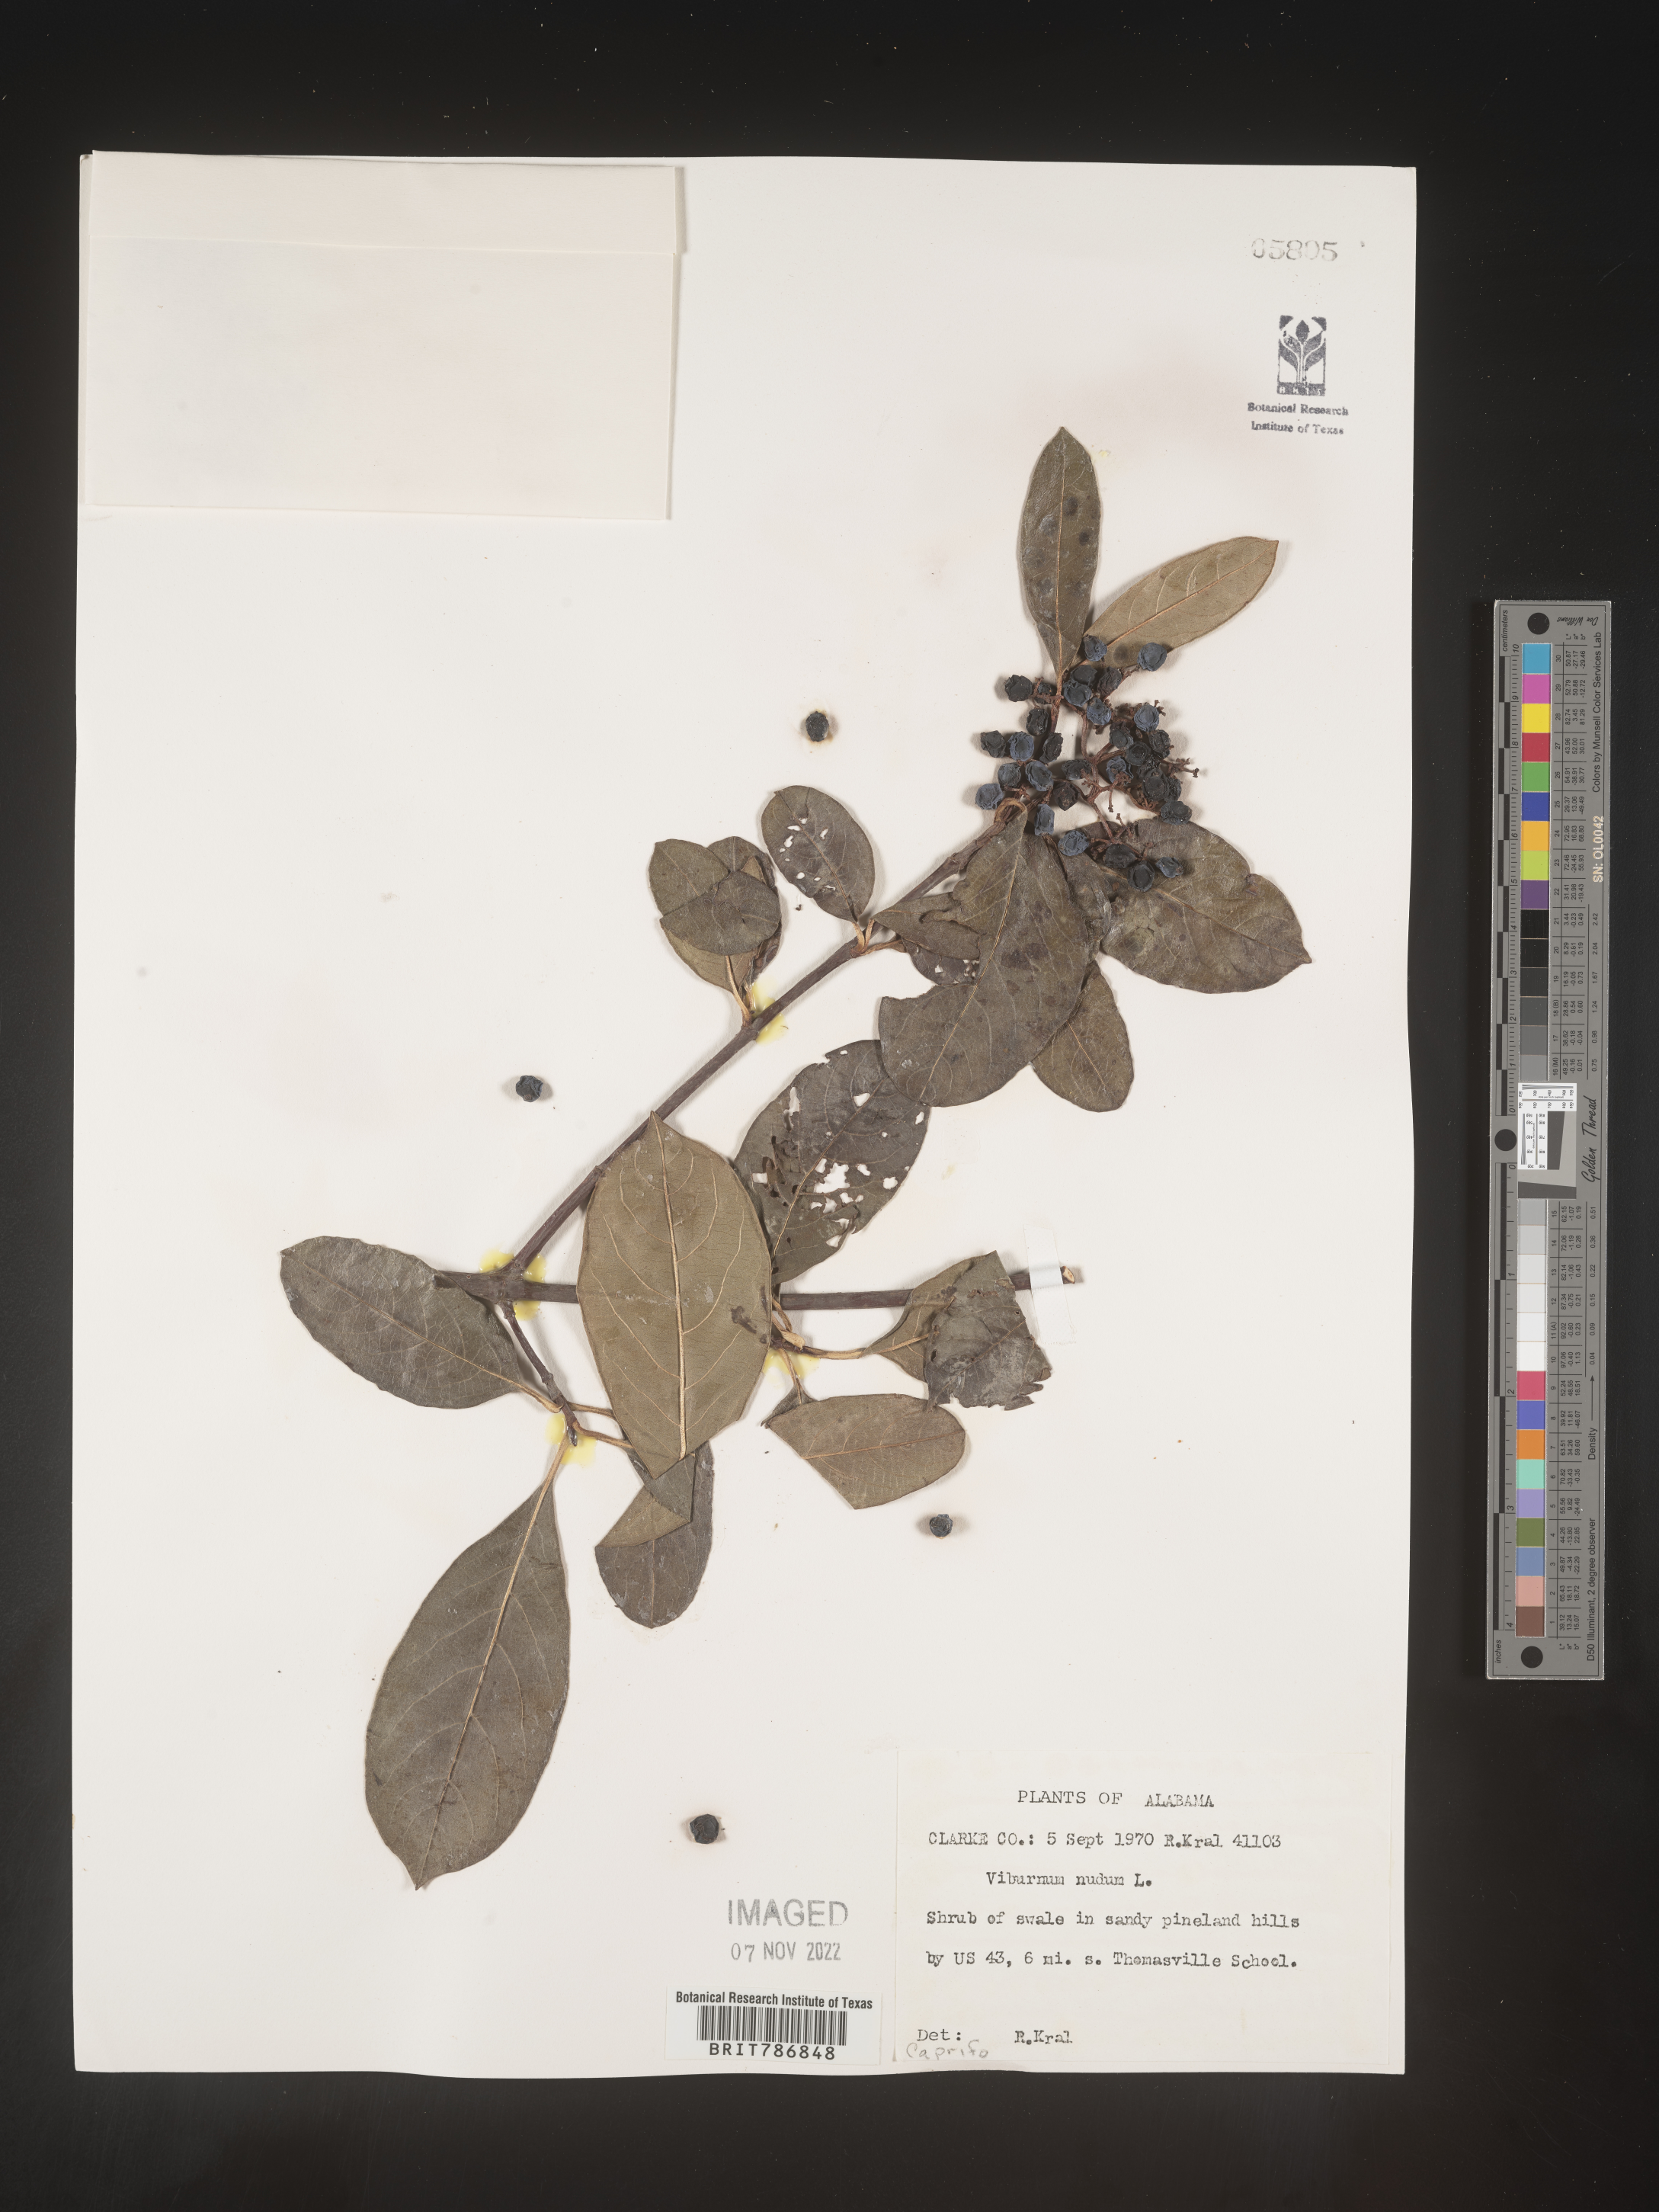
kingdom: Plantae
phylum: Tracheophyta
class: Magnoliopsida
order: Dipsacales
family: Viburnaceae
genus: Viburnum
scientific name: Viburnum nudum
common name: Possum haw
